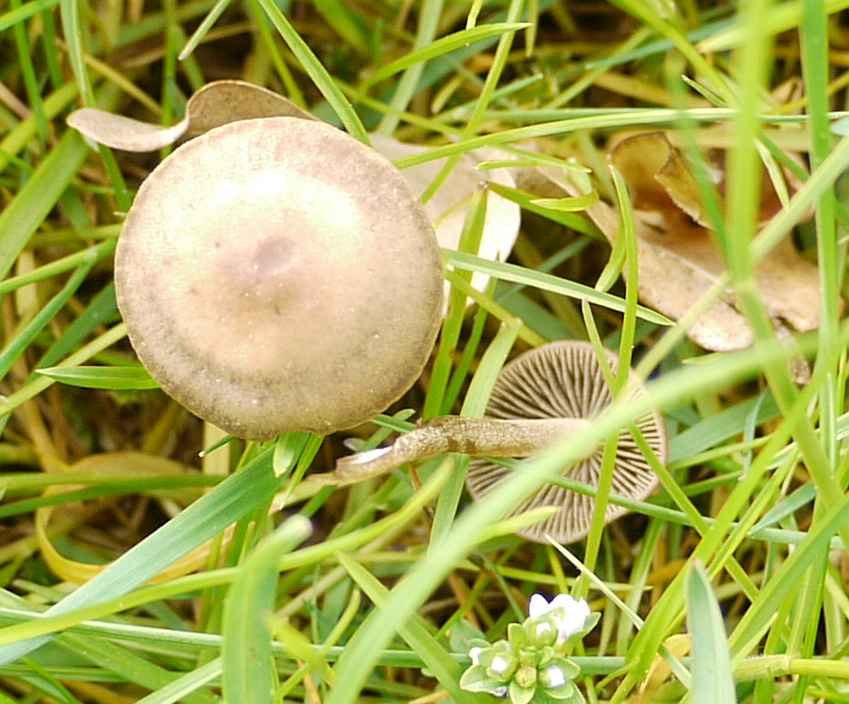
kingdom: Fungi
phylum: Basidiomycota
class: Agaricomycetes
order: Agaricales
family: Bolbitiaceae
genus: Panaeolus
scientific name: Panaeolus fimicola
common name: tidlig glanshat
